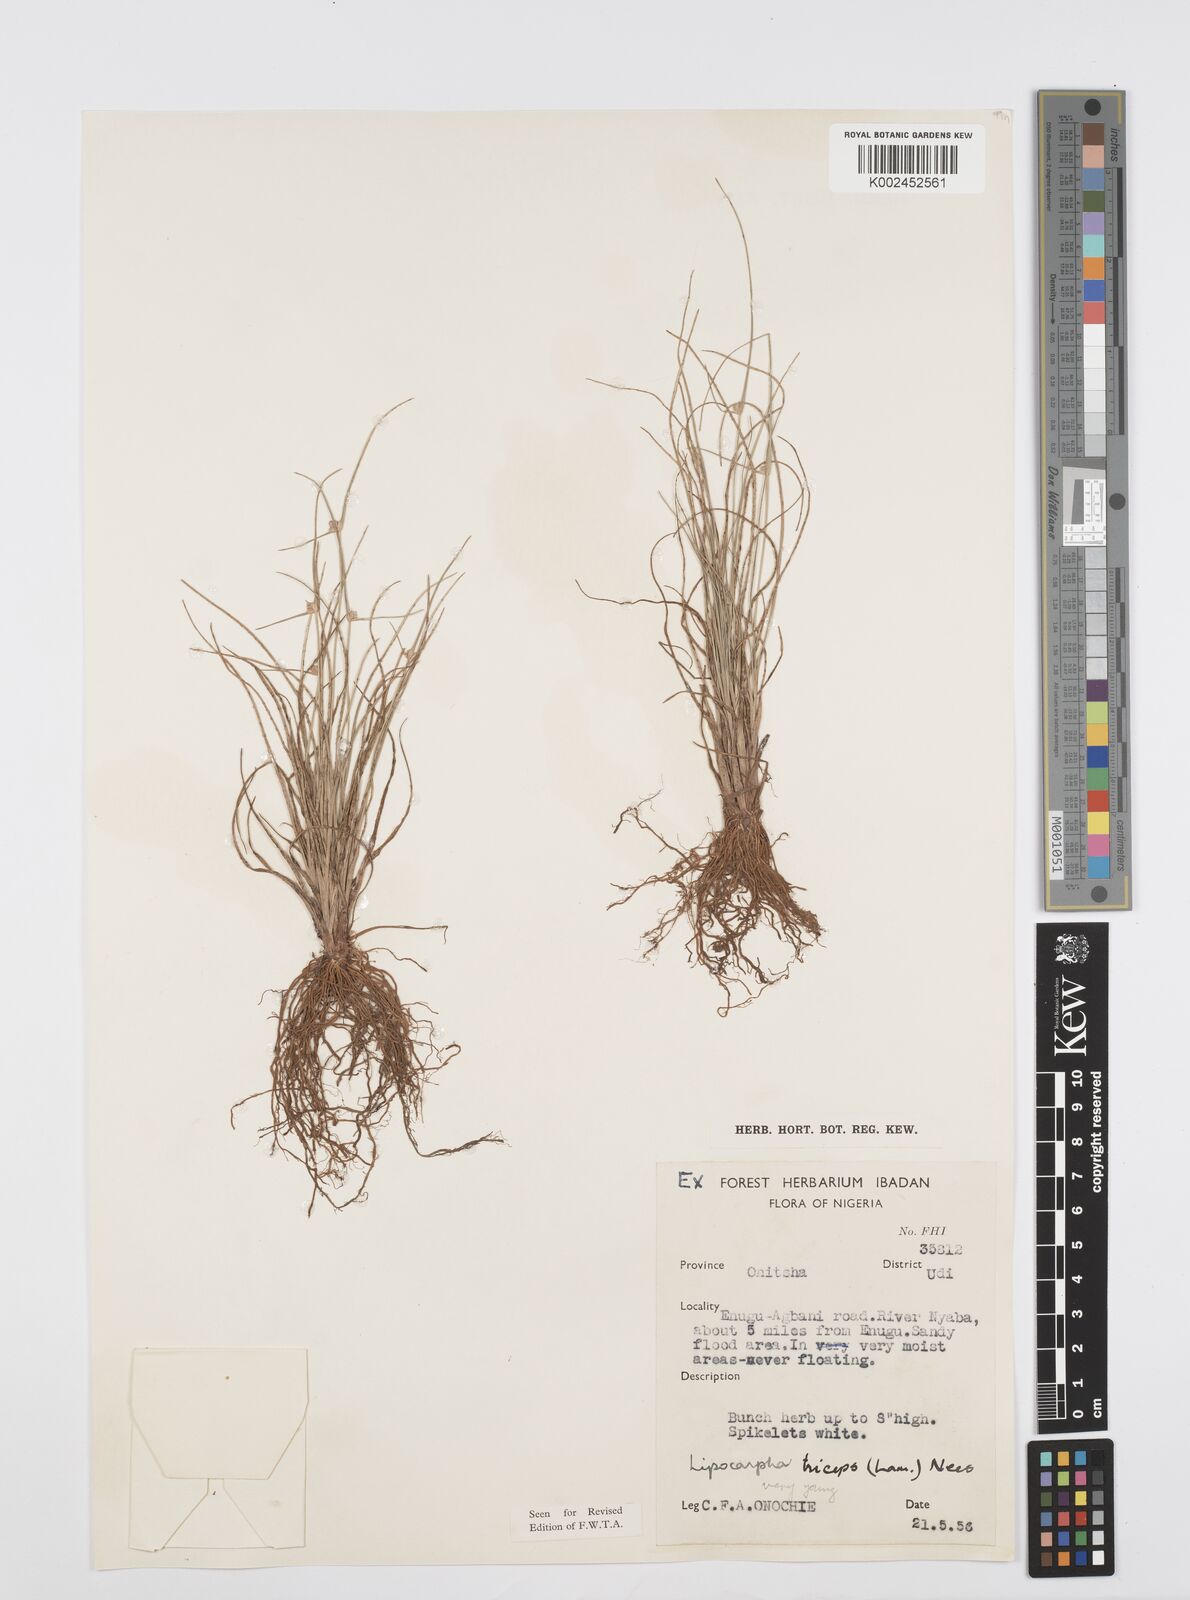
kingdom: Plantae
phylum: Tracheophyta
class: Liliopsida
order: Poales
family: Cyperaceae
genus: Cyperus
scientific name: Cyperus filiformis
